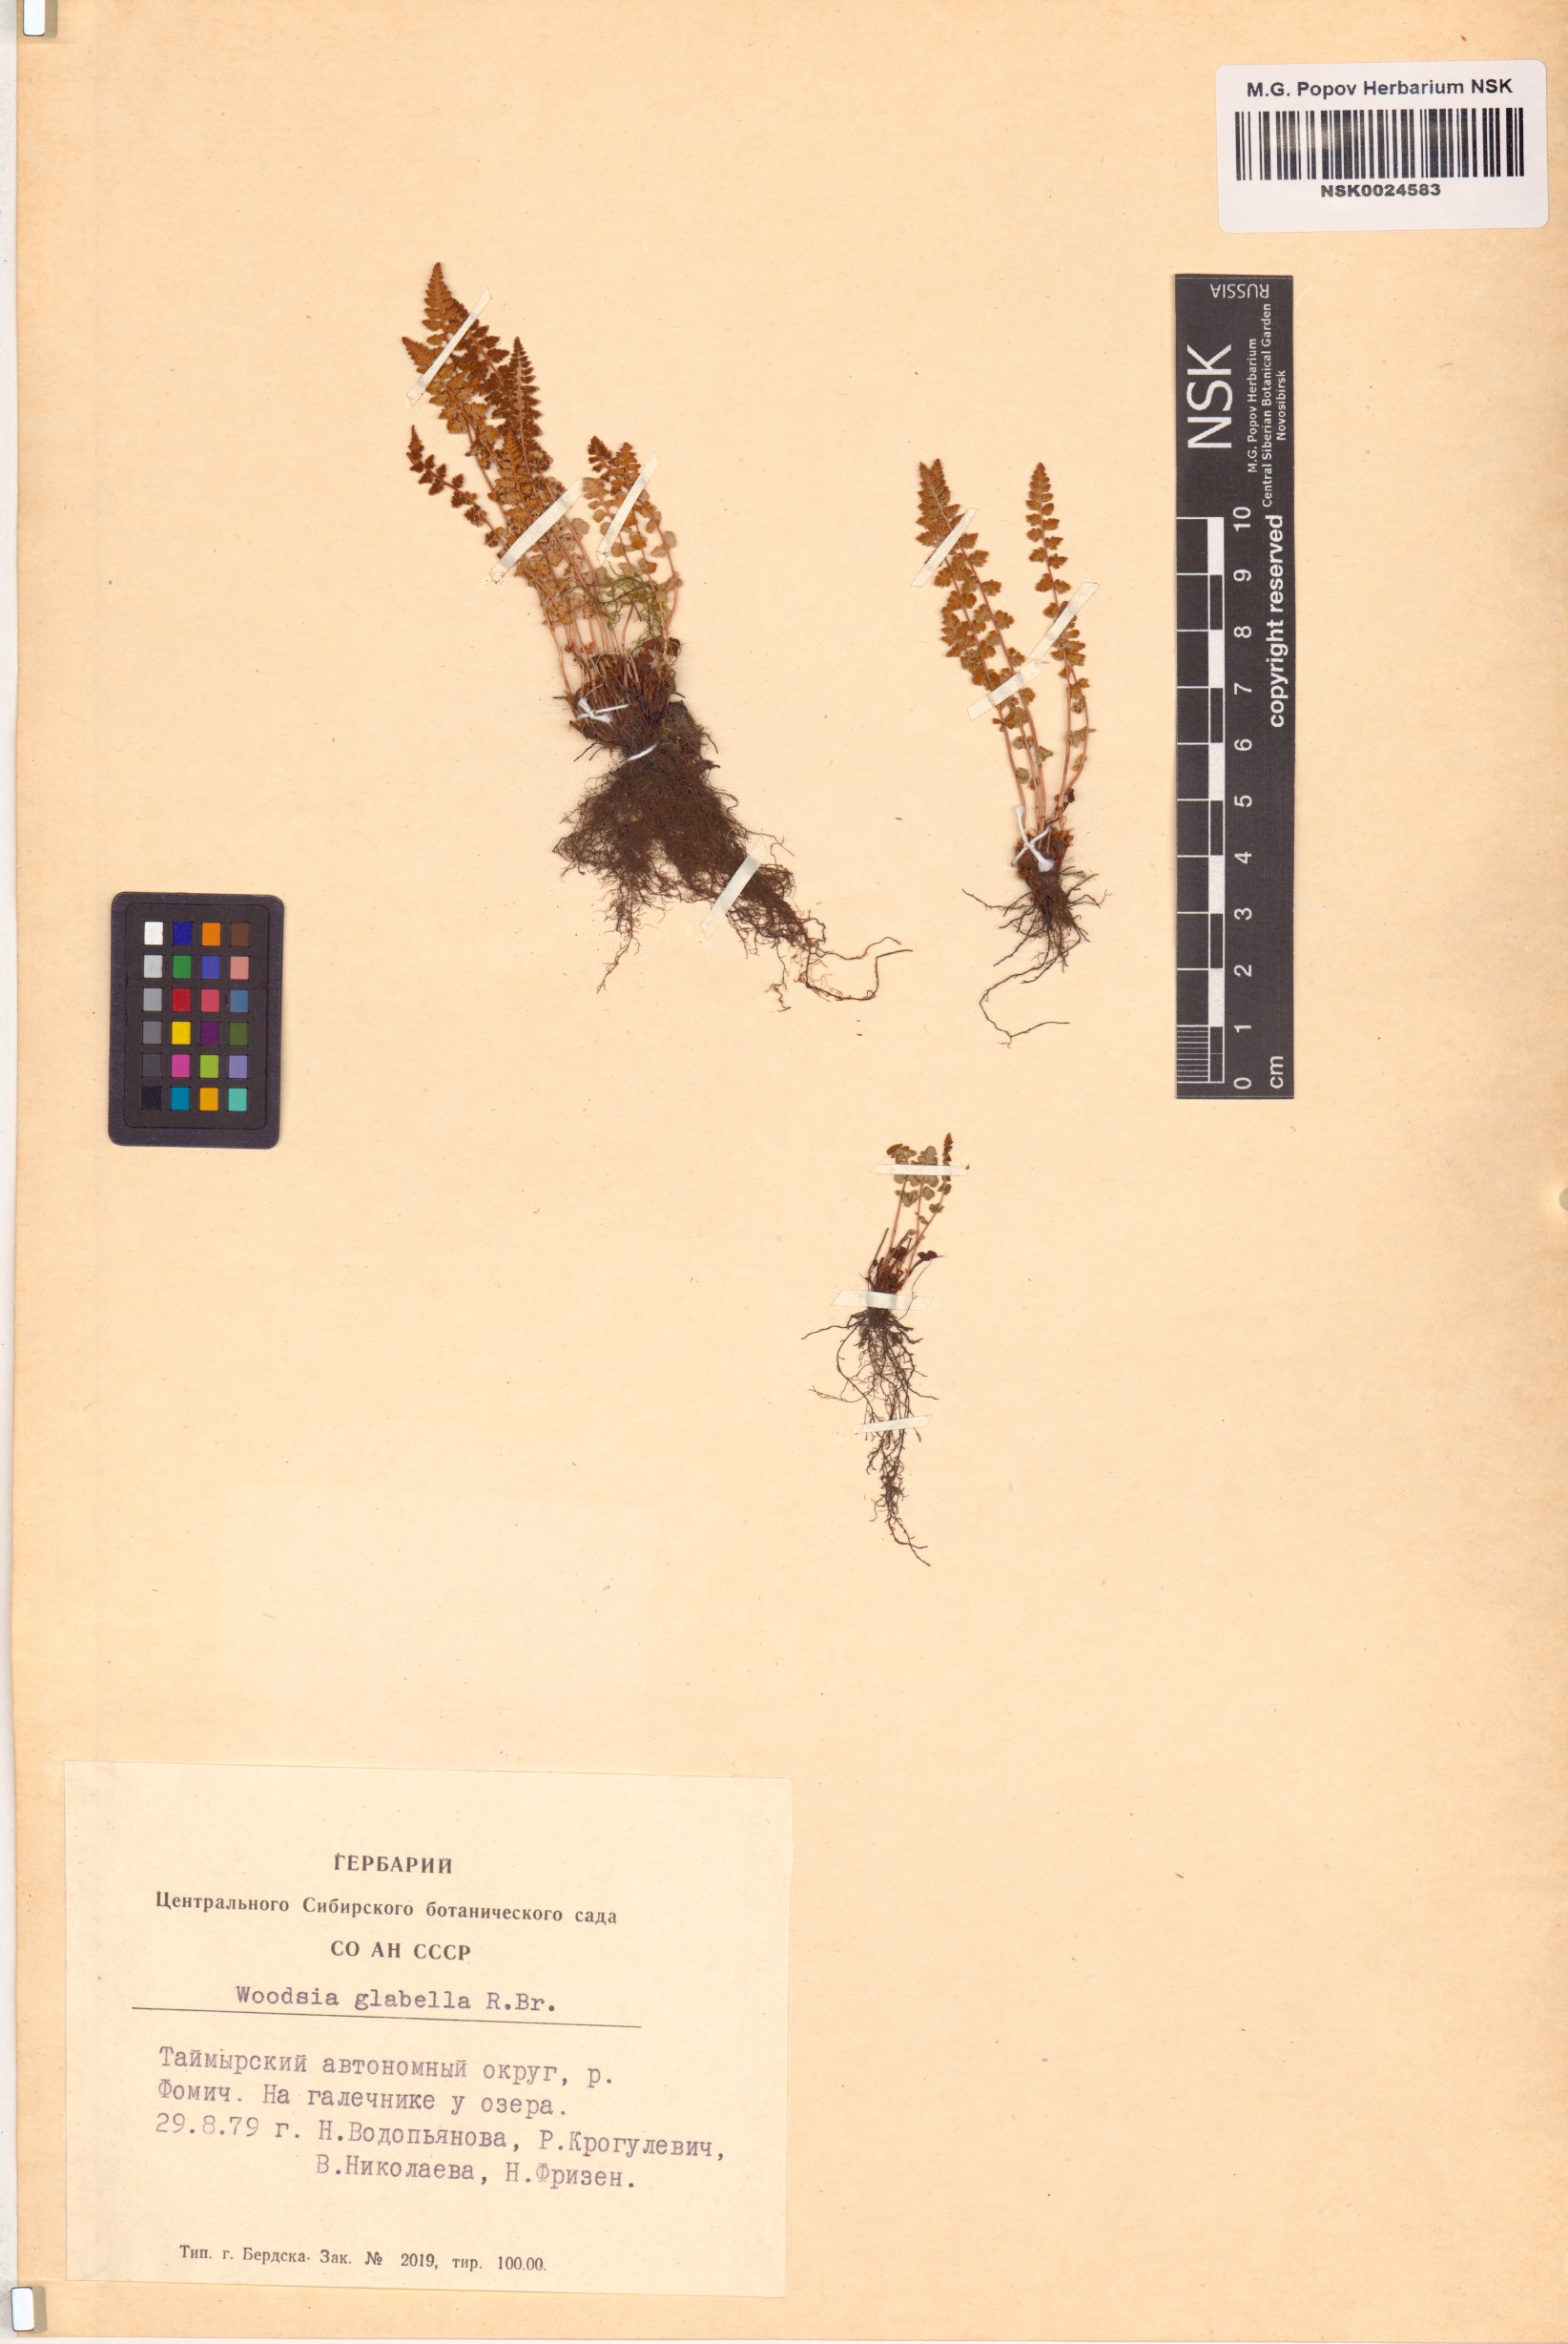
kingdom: Plantae
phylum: Tracheophyta
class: Polypodiopsida
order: Polypodiales
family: Woodsiaceae
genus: Woodsia
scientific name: Woodsia glabella
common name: Smooth woodsia
